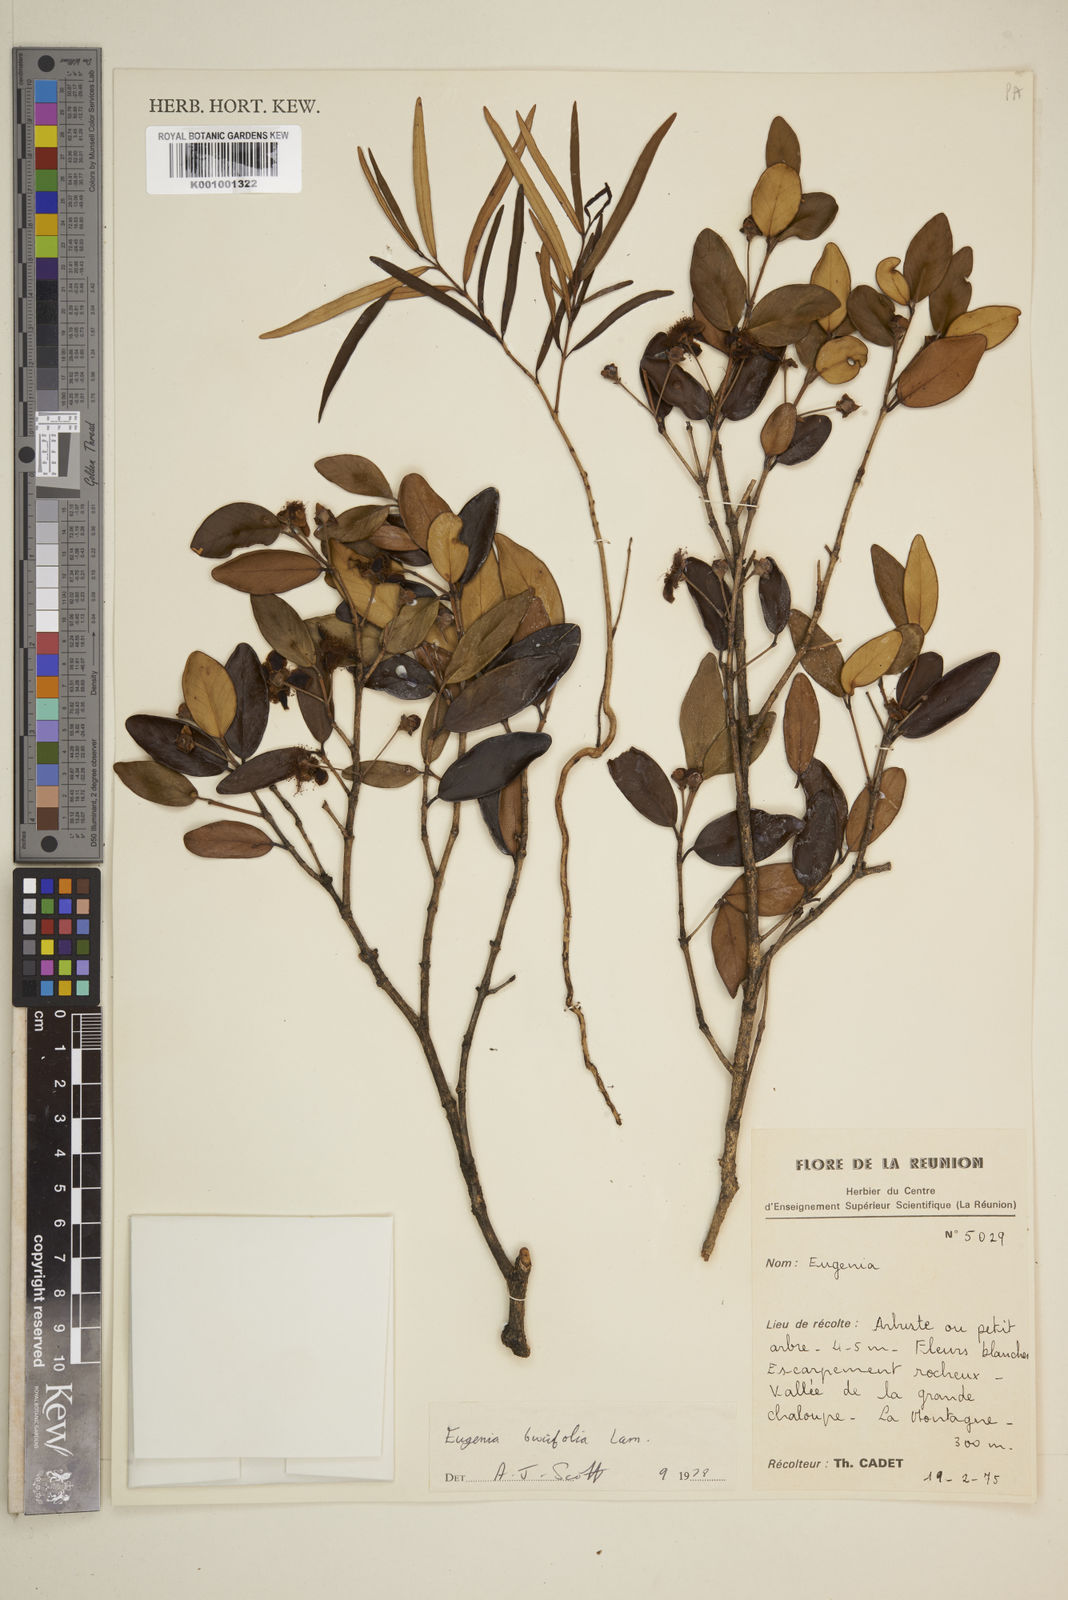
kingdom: Plantae
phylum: Tracheophyta
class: Magnoliopsida
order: Myrtales
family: Myrtaceae
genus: Eugenia
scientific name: Eugenia buxifolia
